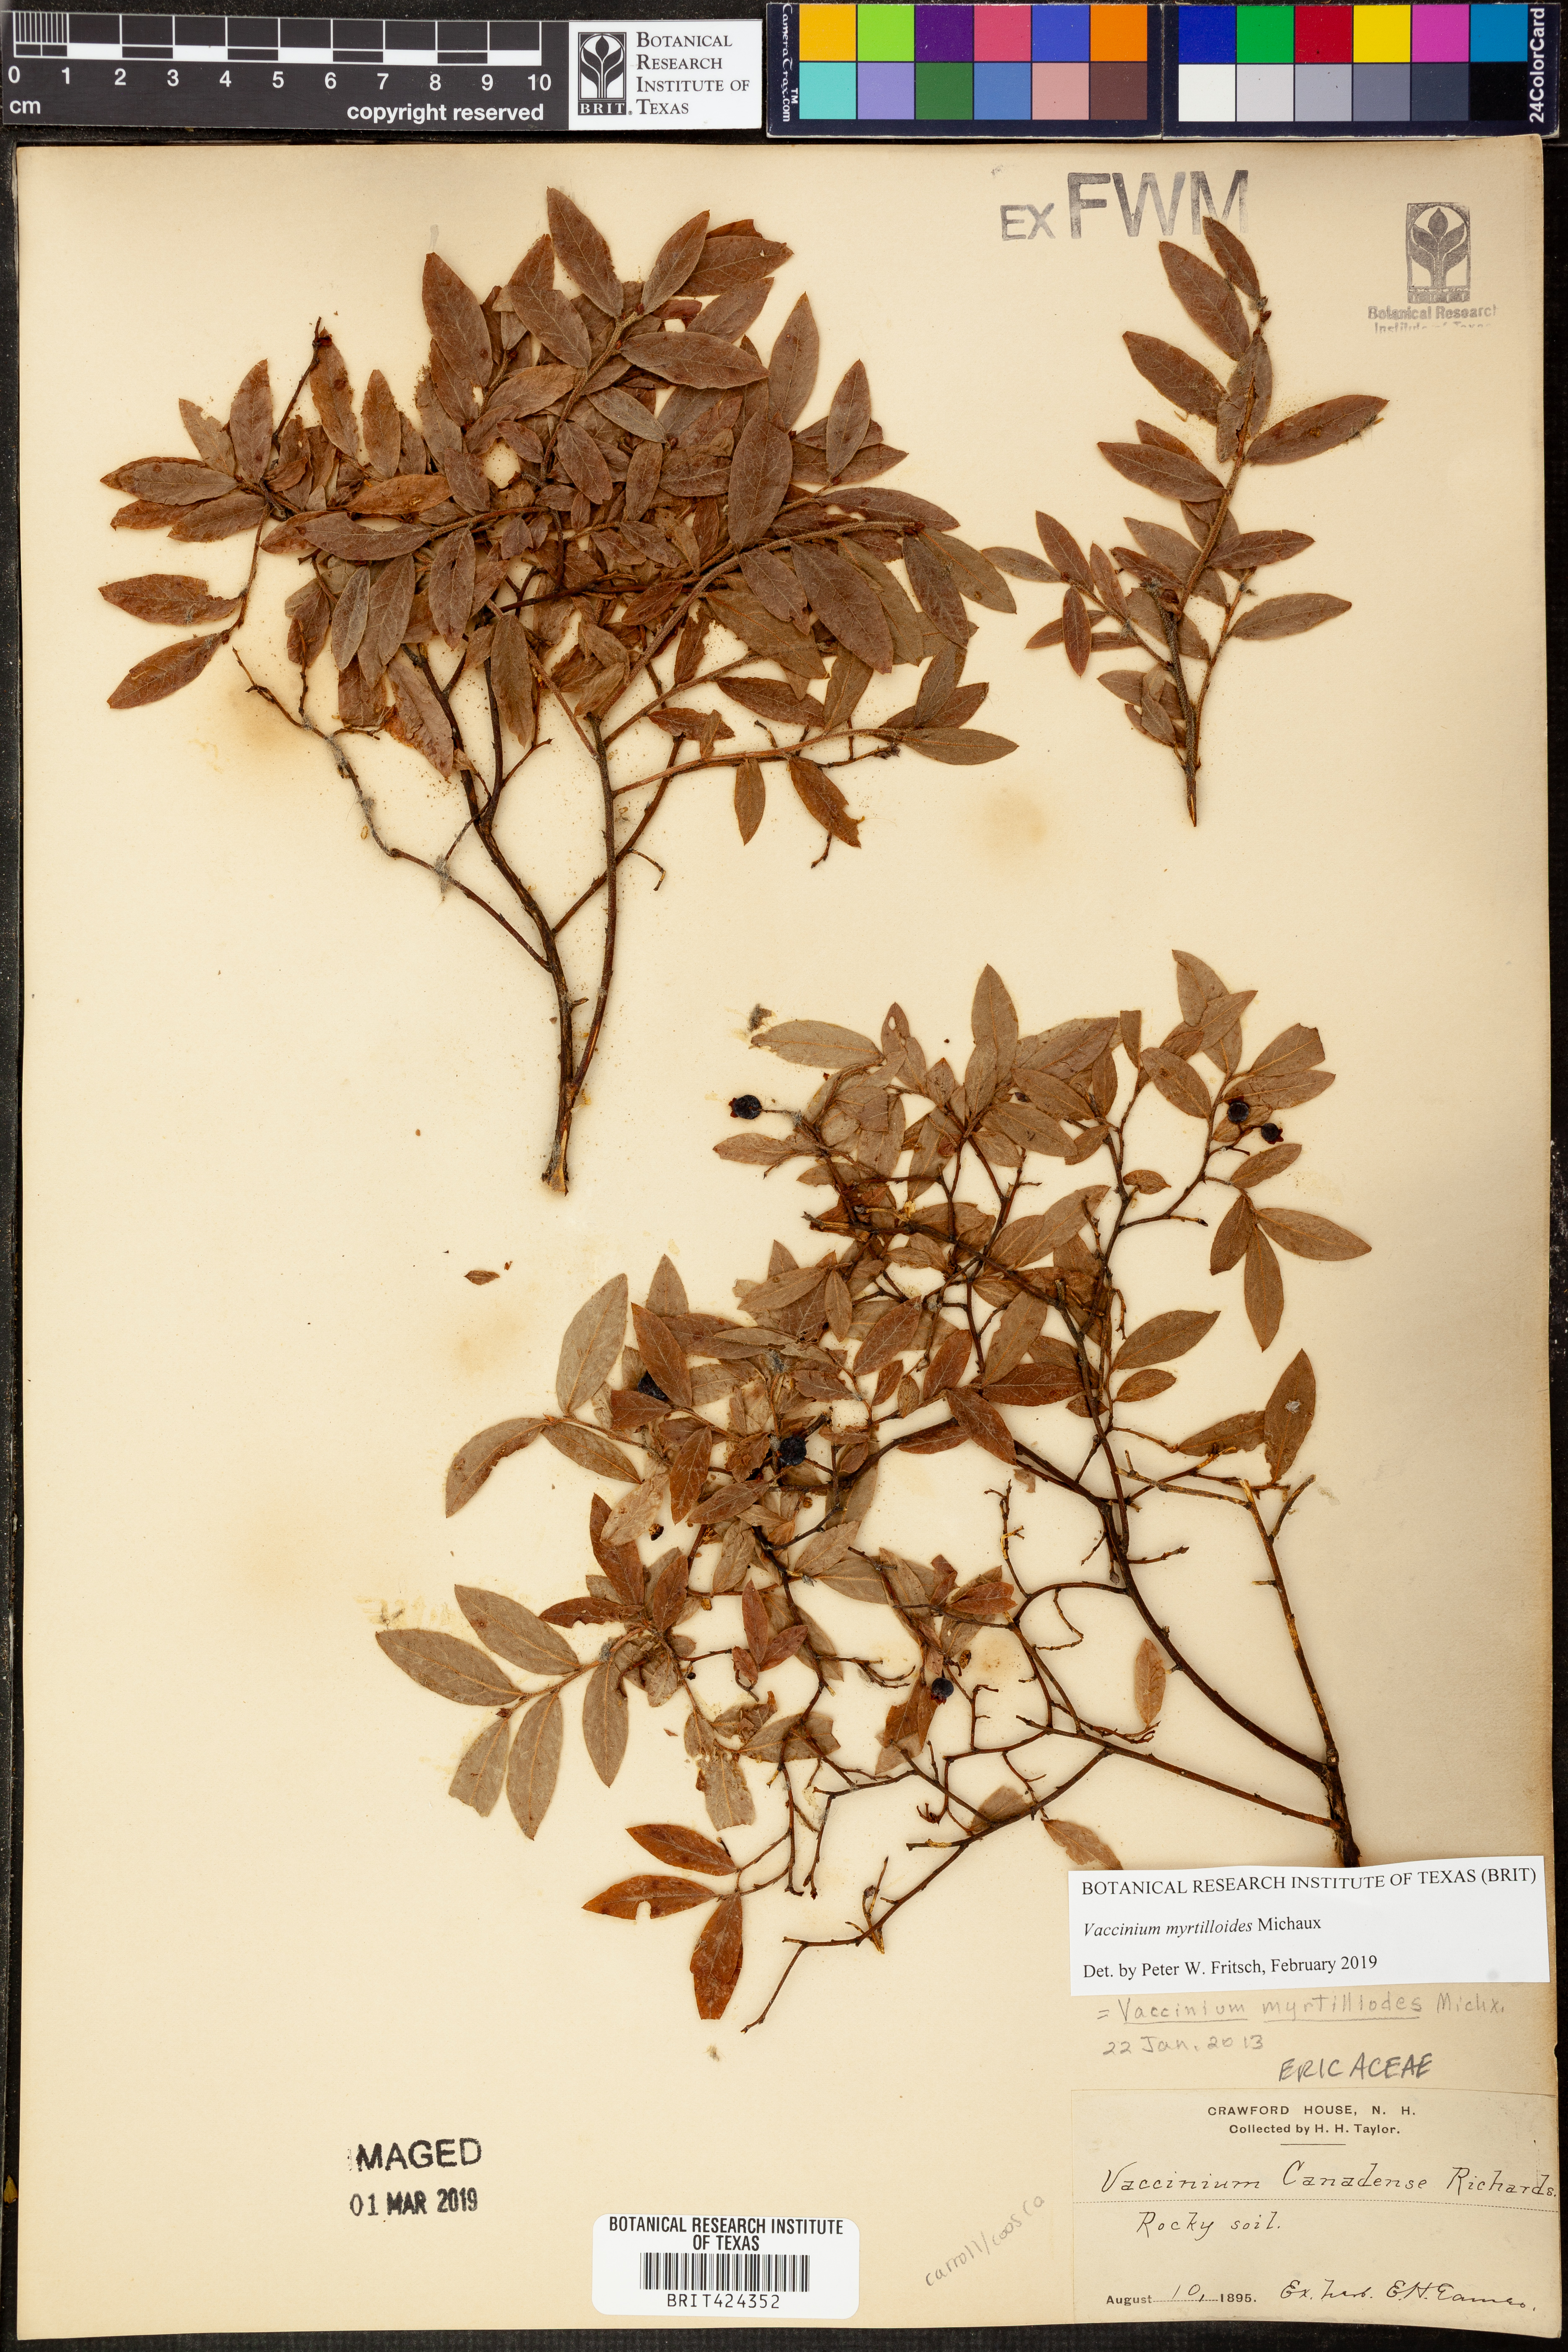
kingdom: Plantae
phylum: Tracheophyta
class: Magnoliopsida
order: Ericales
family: Ericaceae
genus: Vaccinium
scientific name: Vaccinium myrtilloides
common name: Canada blueberry
